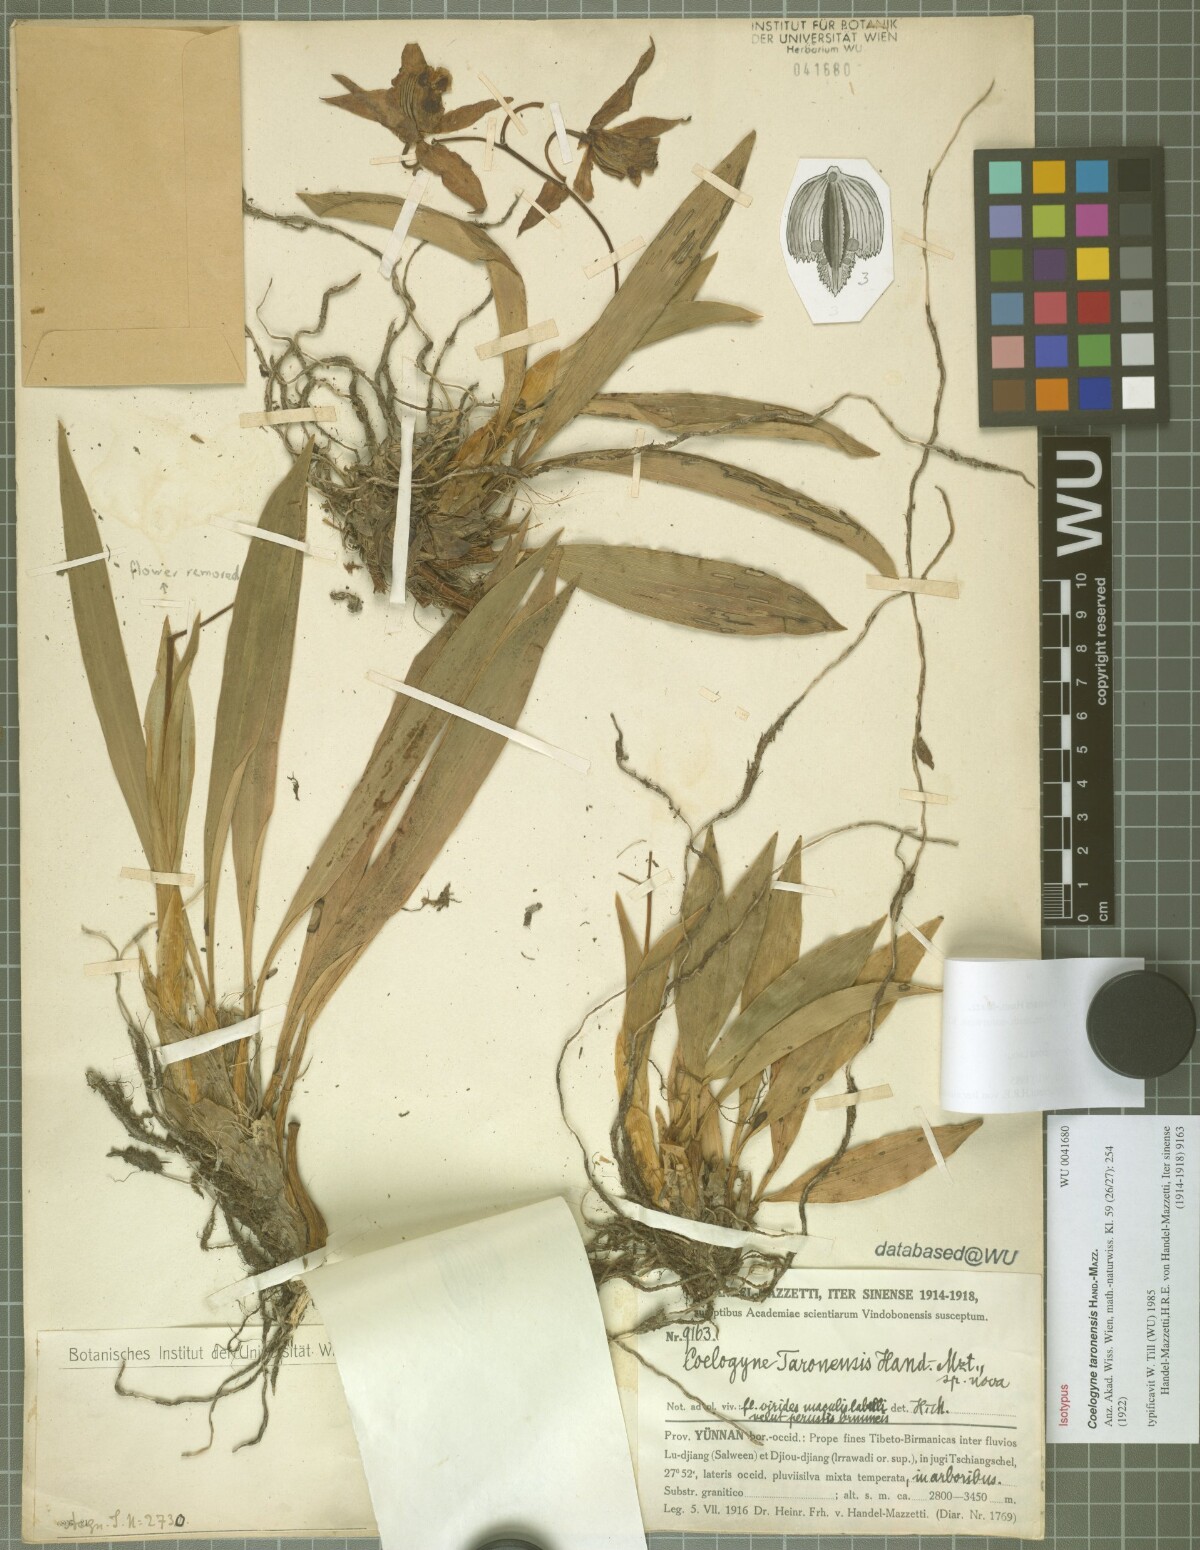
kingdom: Plantae
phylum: Tracheophyta
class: Liliopsida
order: Asparagales
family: Orchidaceae
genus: Coelogyne
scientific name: Coelogyne taronensis
